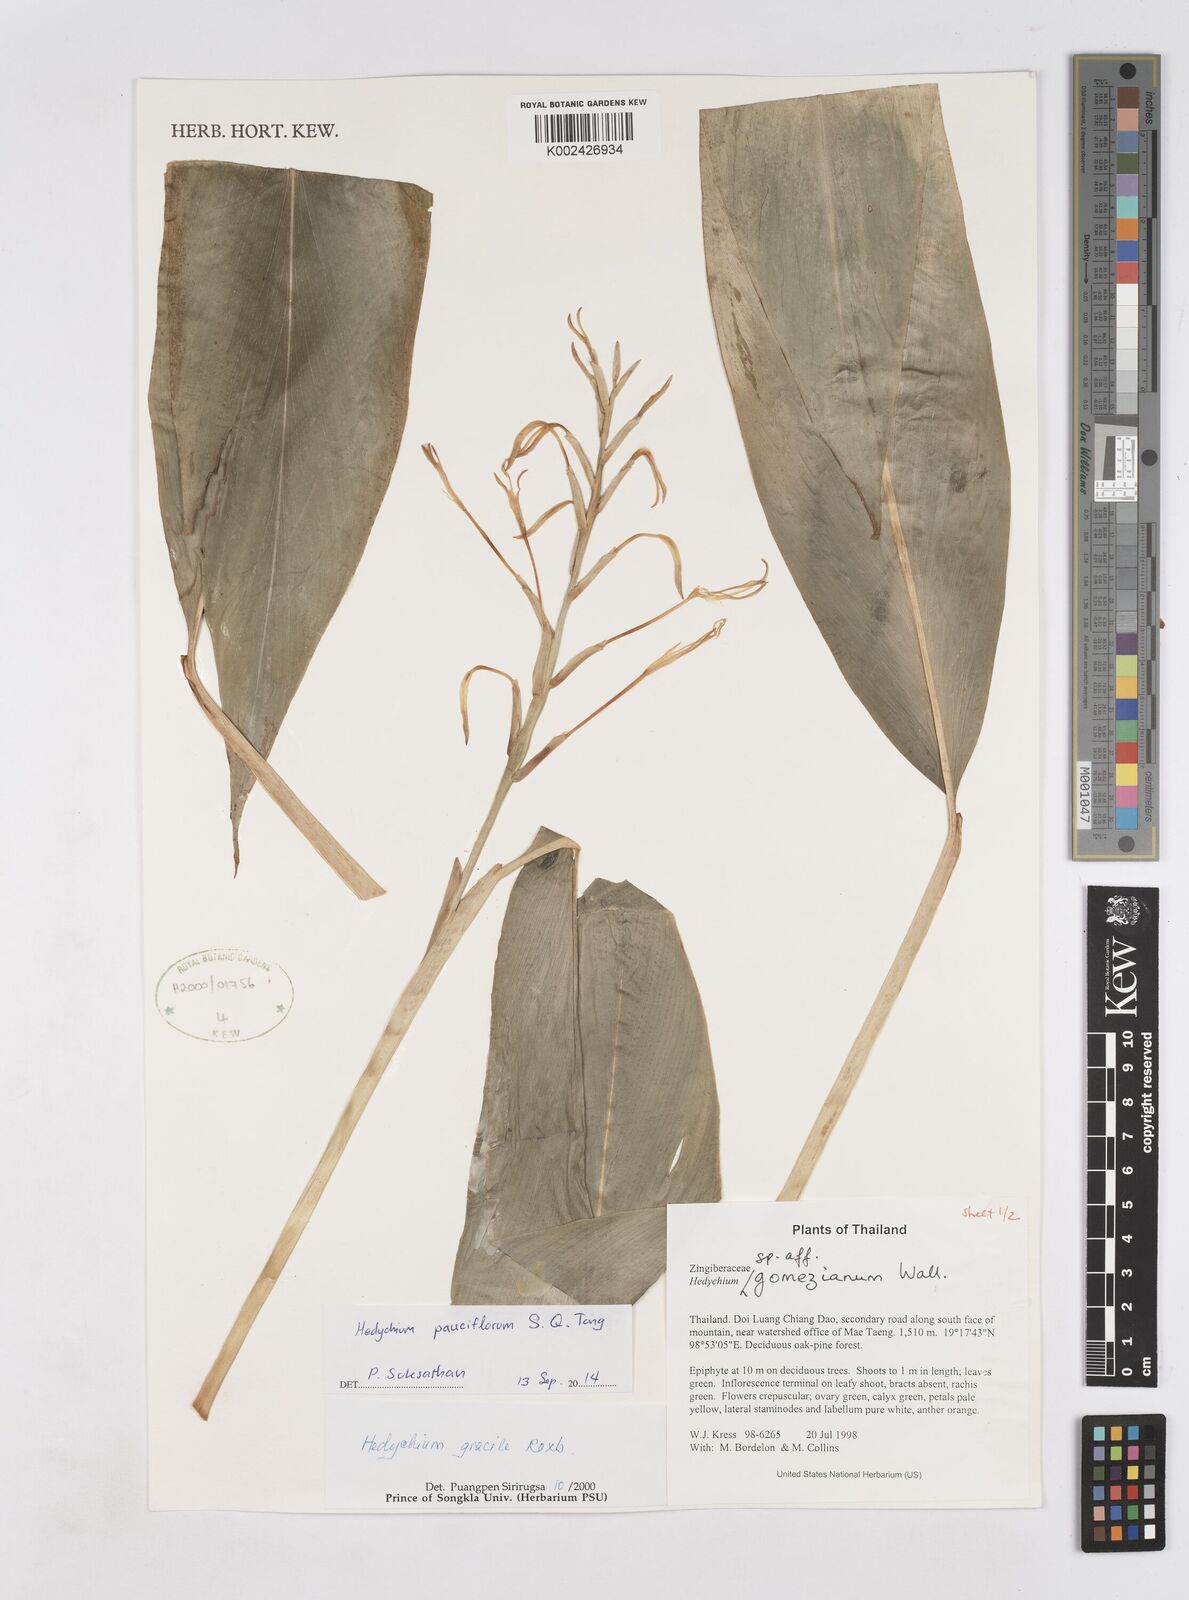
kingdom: Plantae
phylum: Tracheophyta
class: Liliopsida
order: Zingiberales
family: Zingiberaceae
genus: Hedychium
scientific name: Hedychium poilanei
